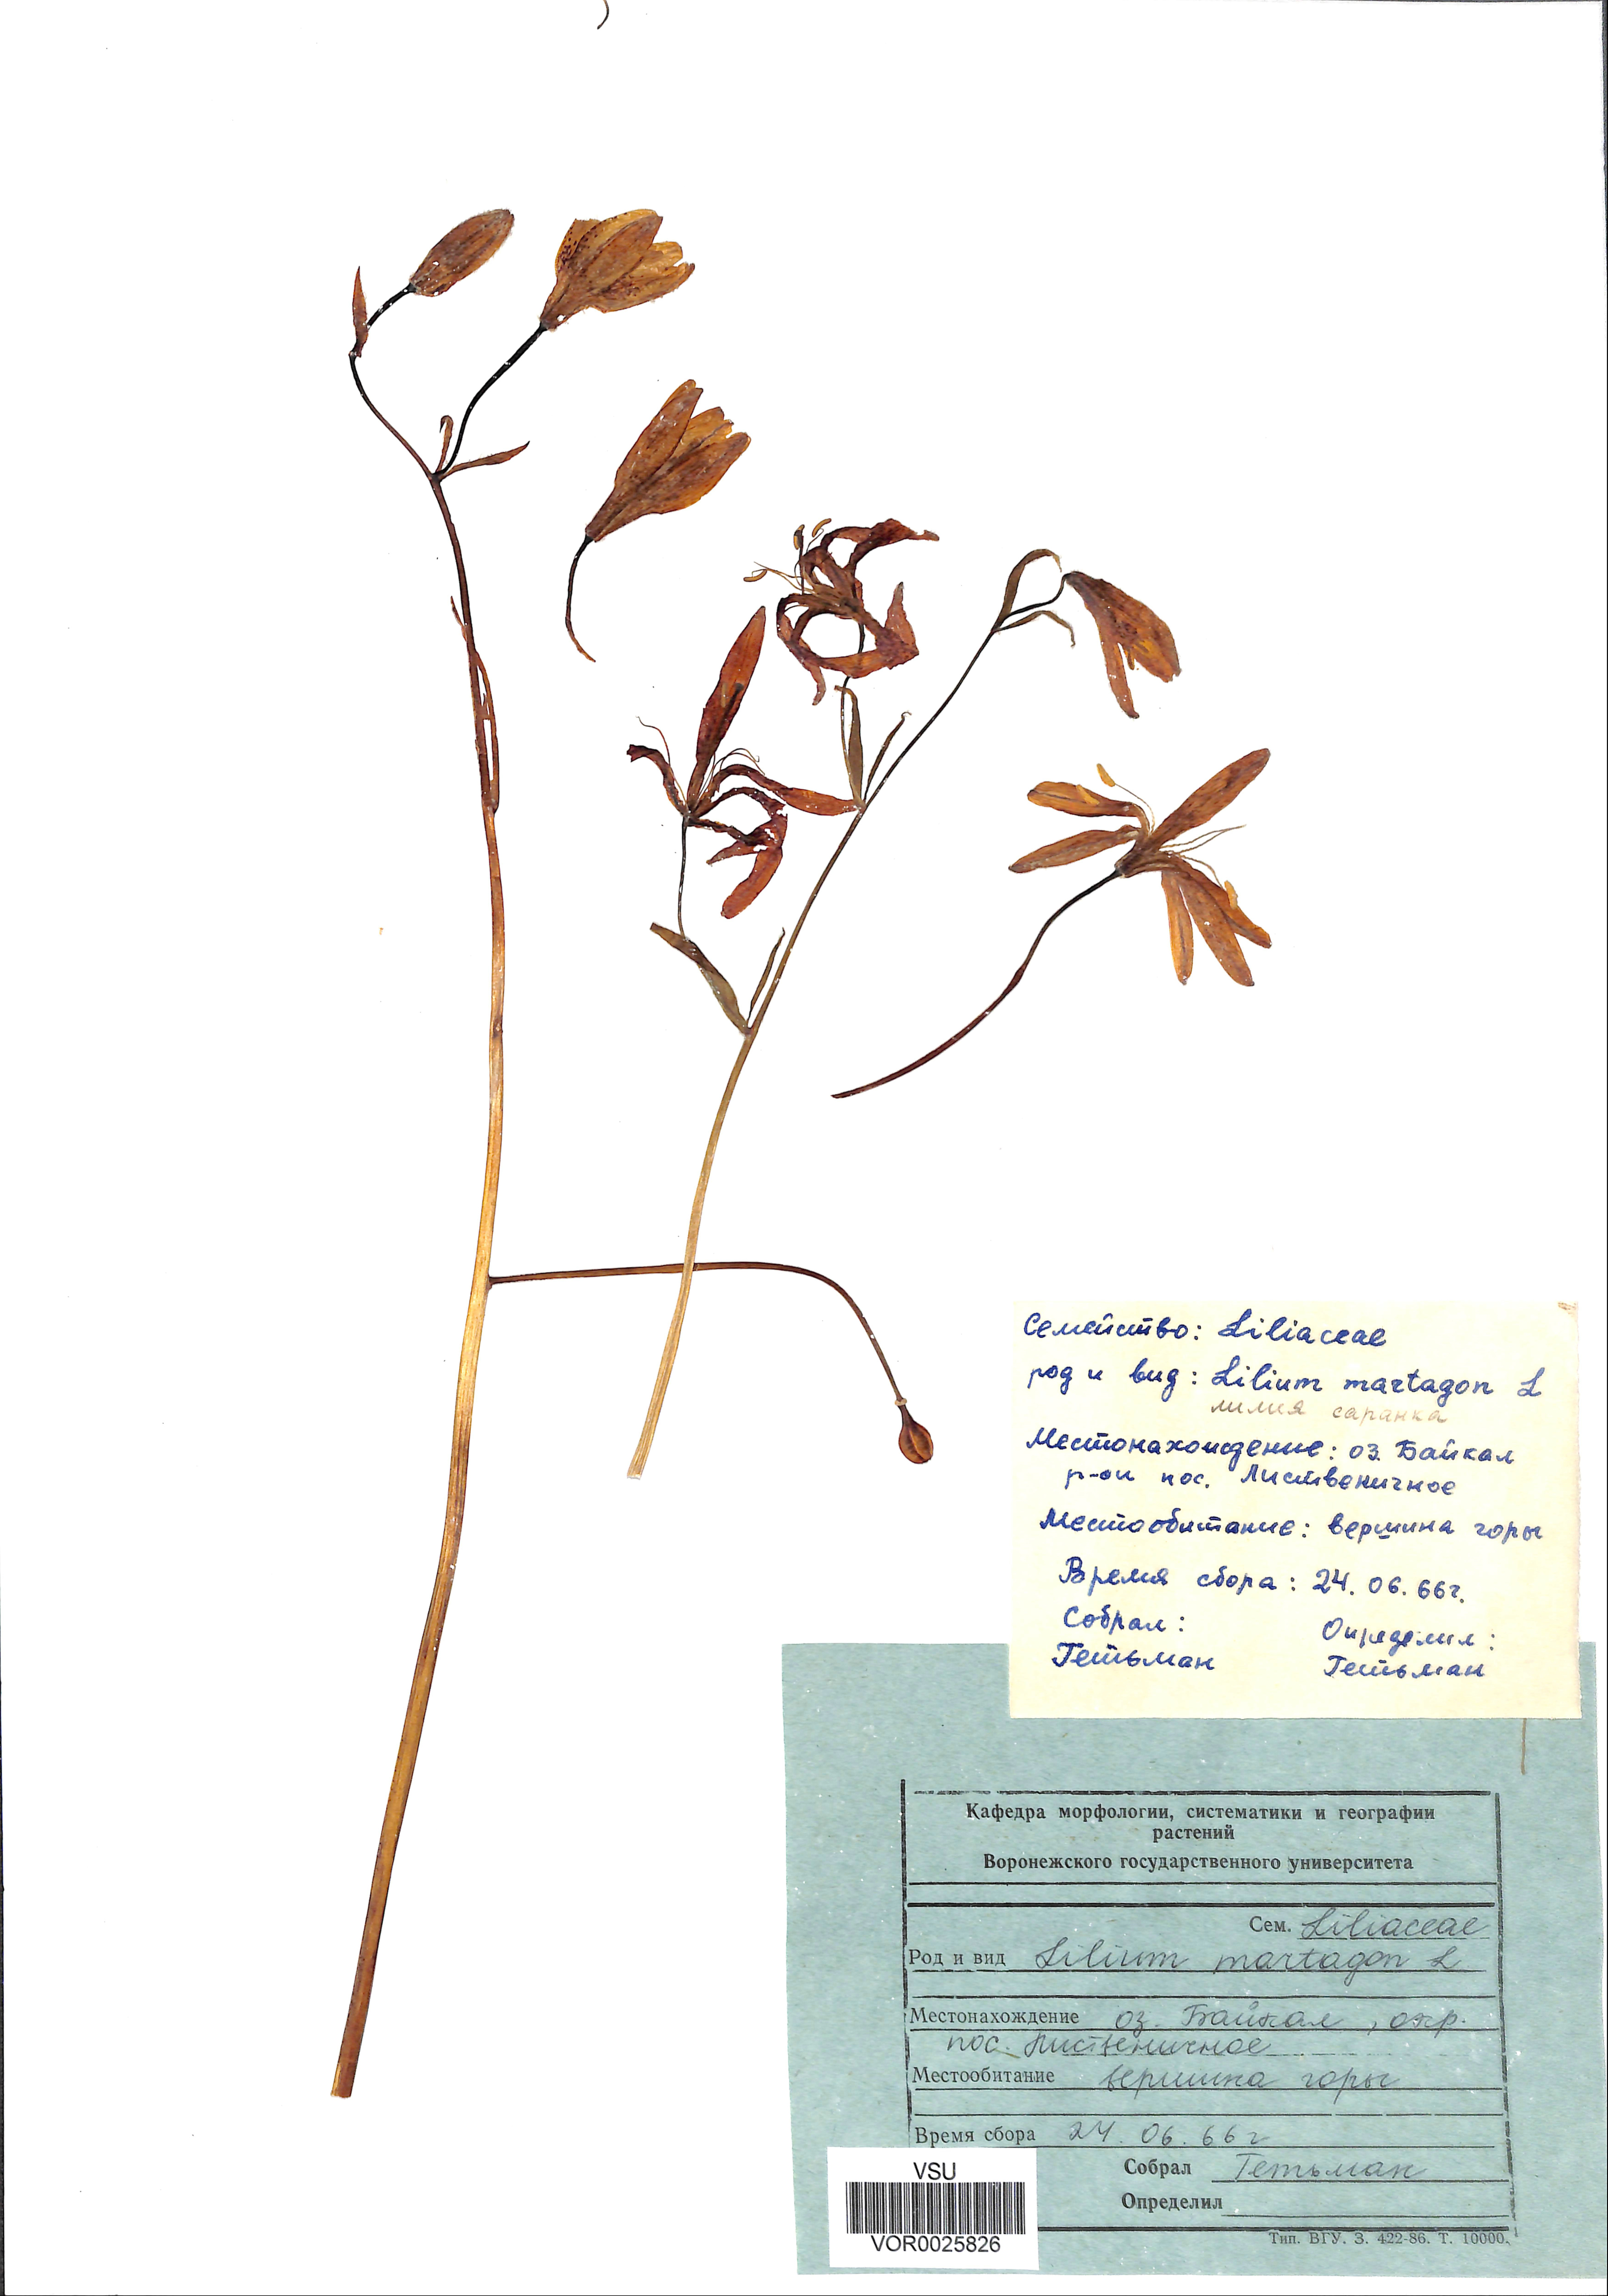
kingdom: Plantae
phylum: Tracheophyta
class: Liliopsida
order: Liliales
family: Liliaceae
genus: Lilium
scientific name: Lilium martagon
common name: Martagon lily
